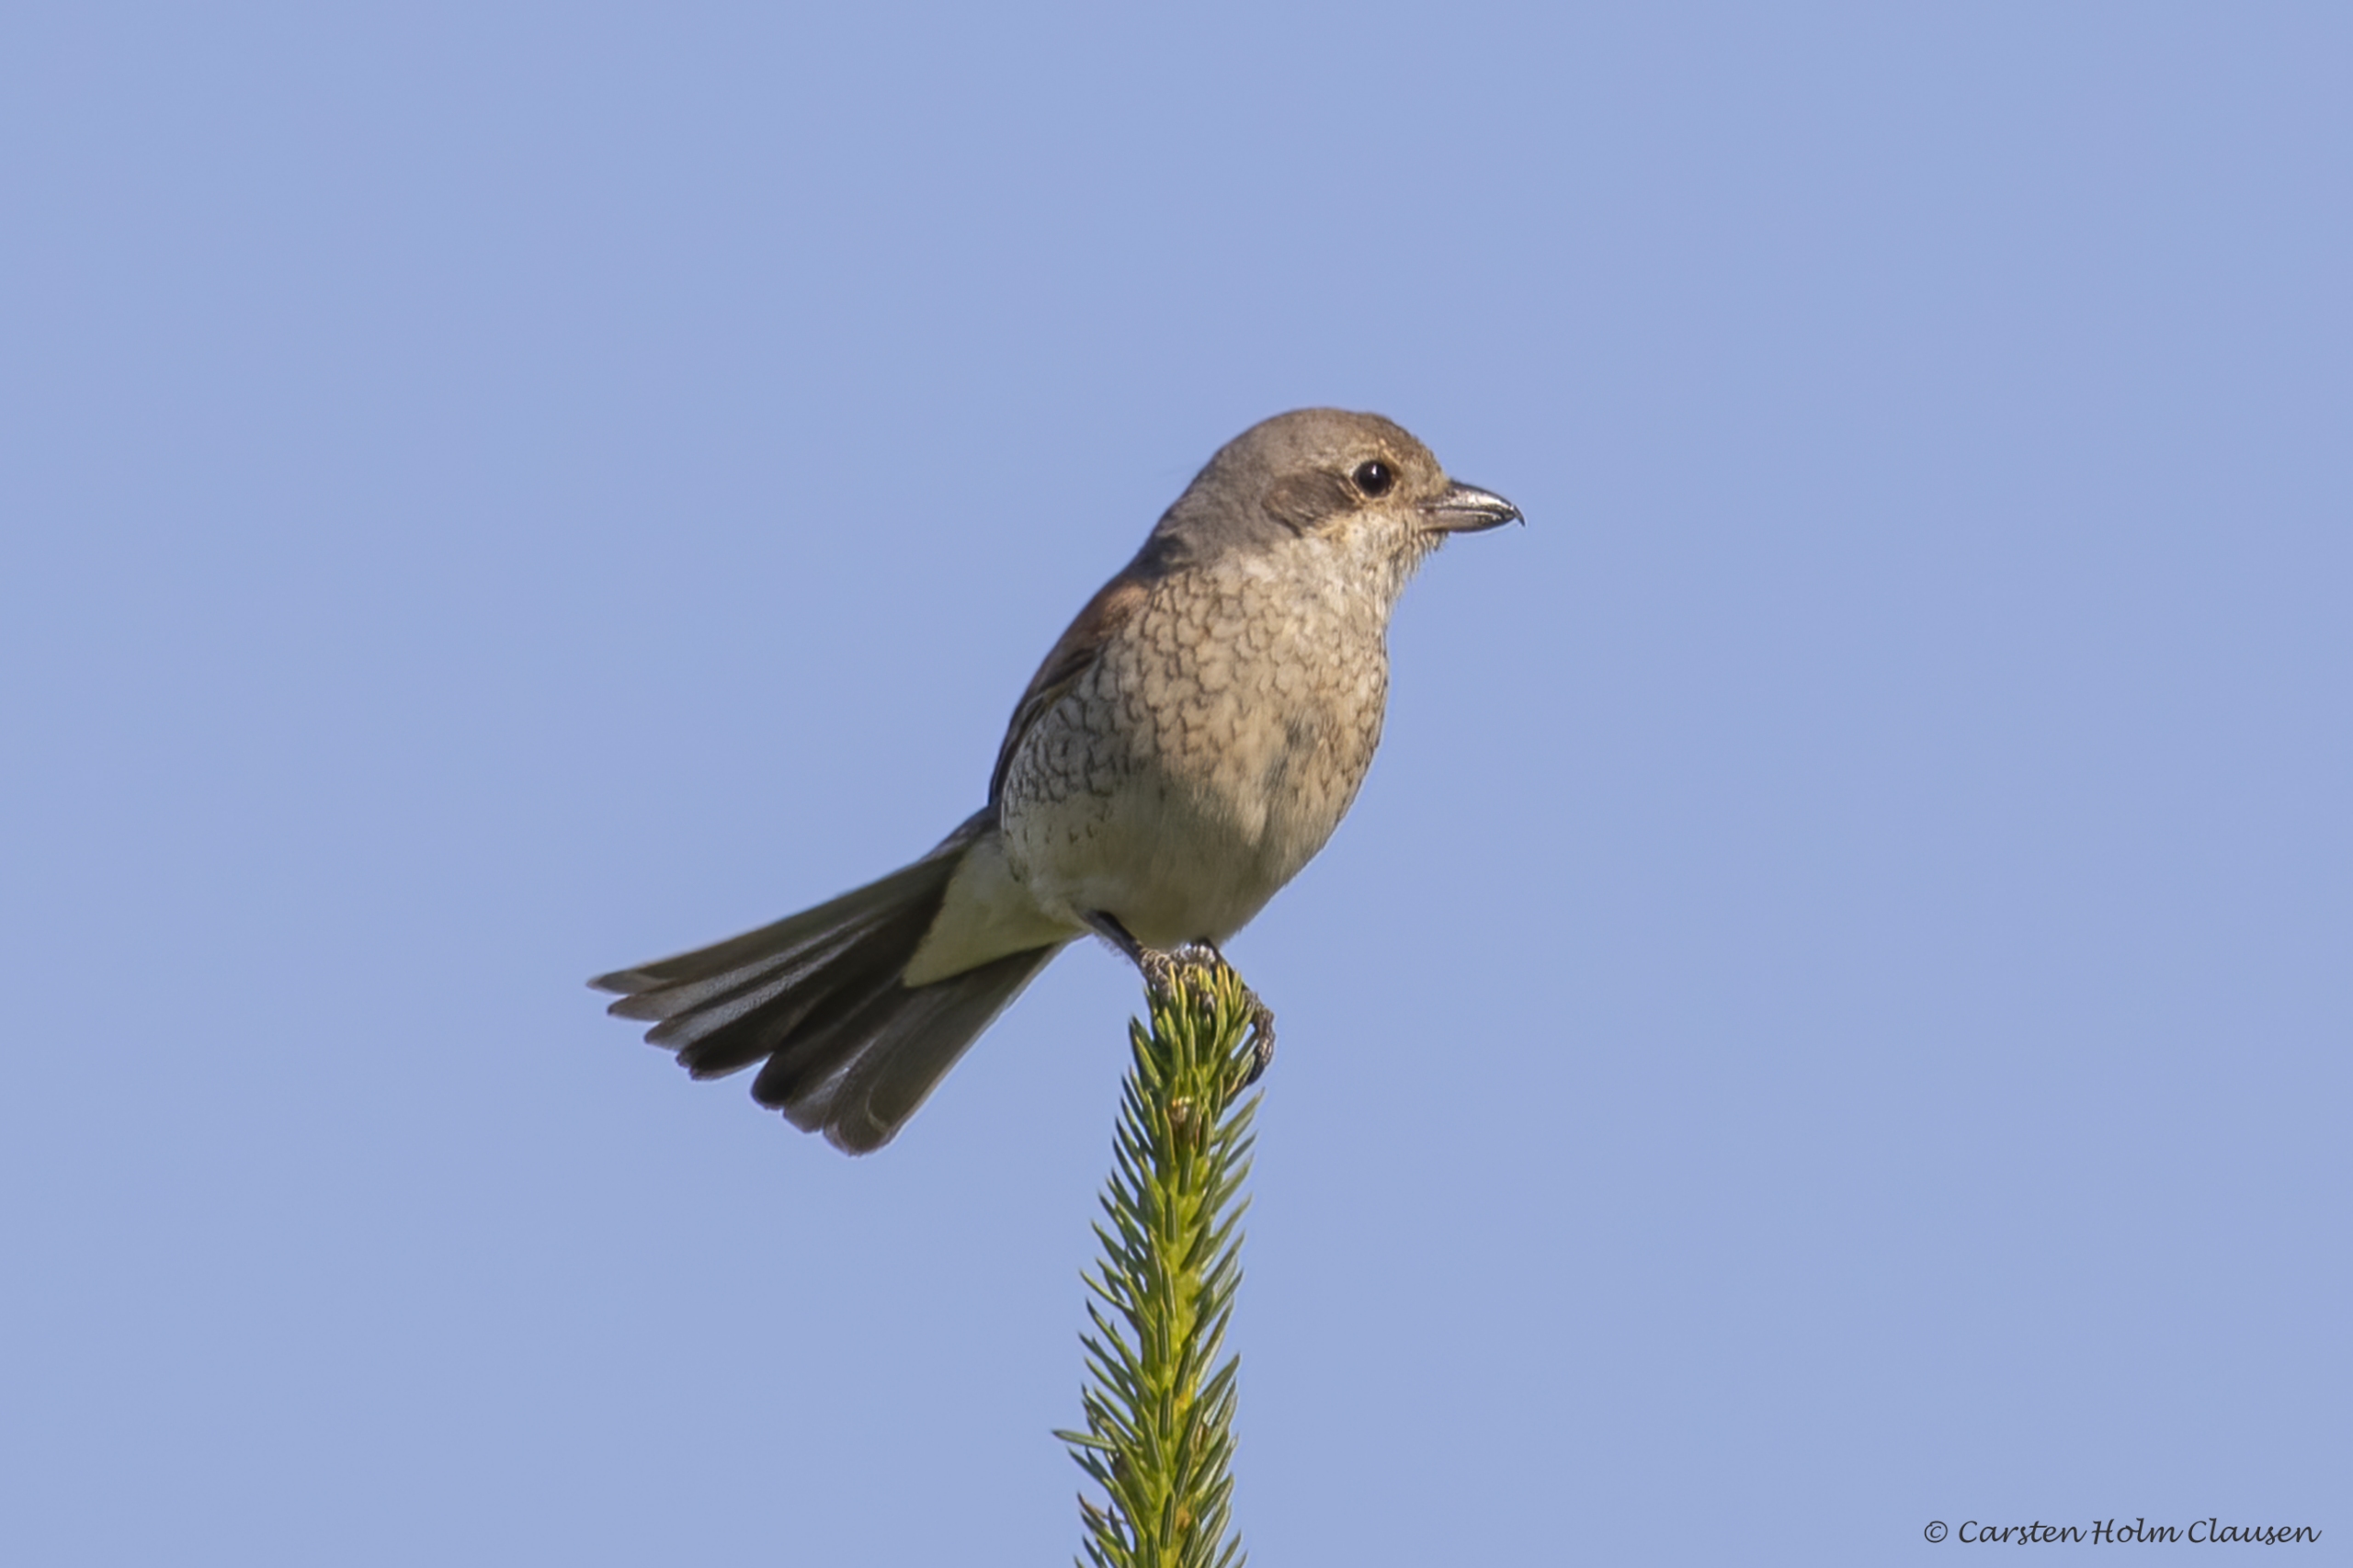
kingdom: Animalia
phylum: Chordata
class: Aves
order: Passeriformes
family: Laniidae
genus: Lanius
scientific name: Lanius collurio
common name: Rødrygget tornskade
